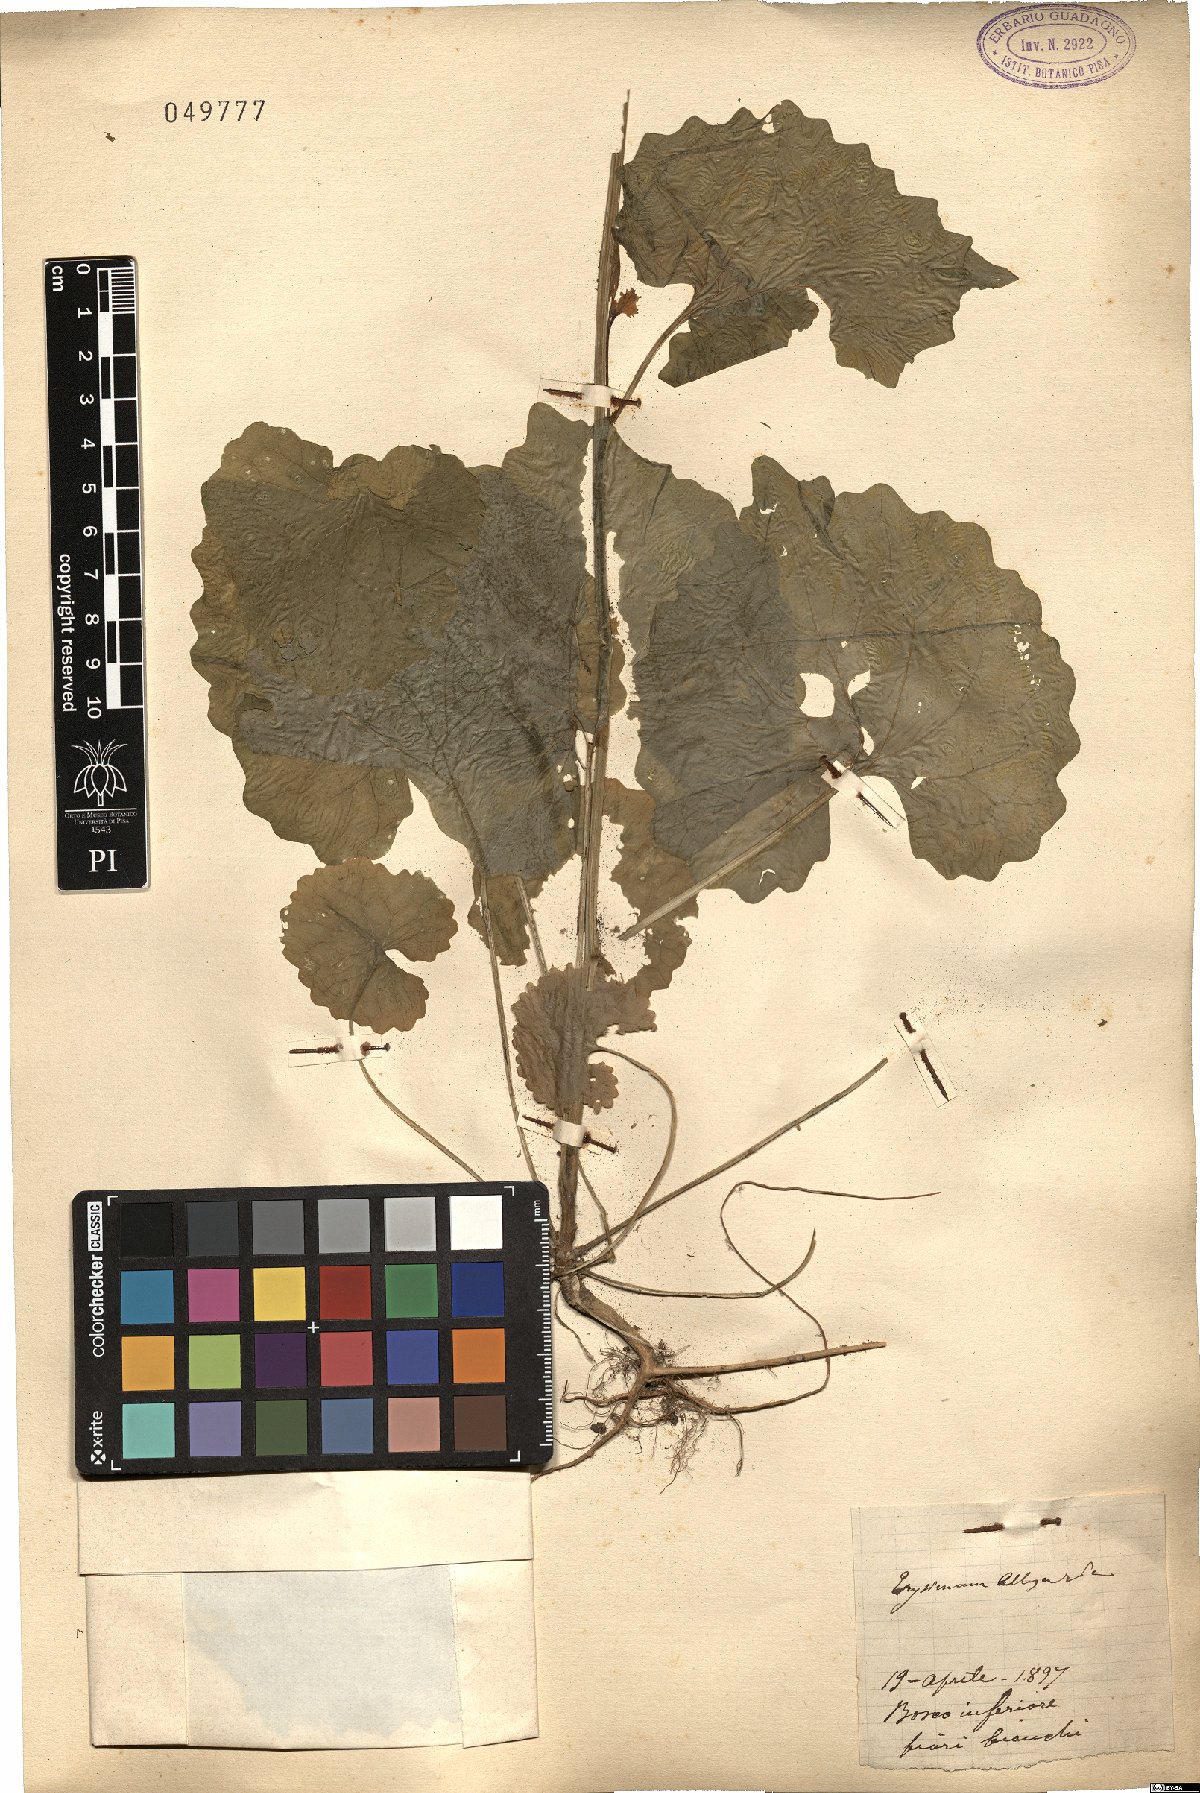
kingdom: Plantae
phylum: Tracheophyta
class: Magnoliopsida
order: Brassicales
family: Brassicaceae
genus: Alliaria
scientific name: Alliaria petiolata
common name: Garlic mustard
